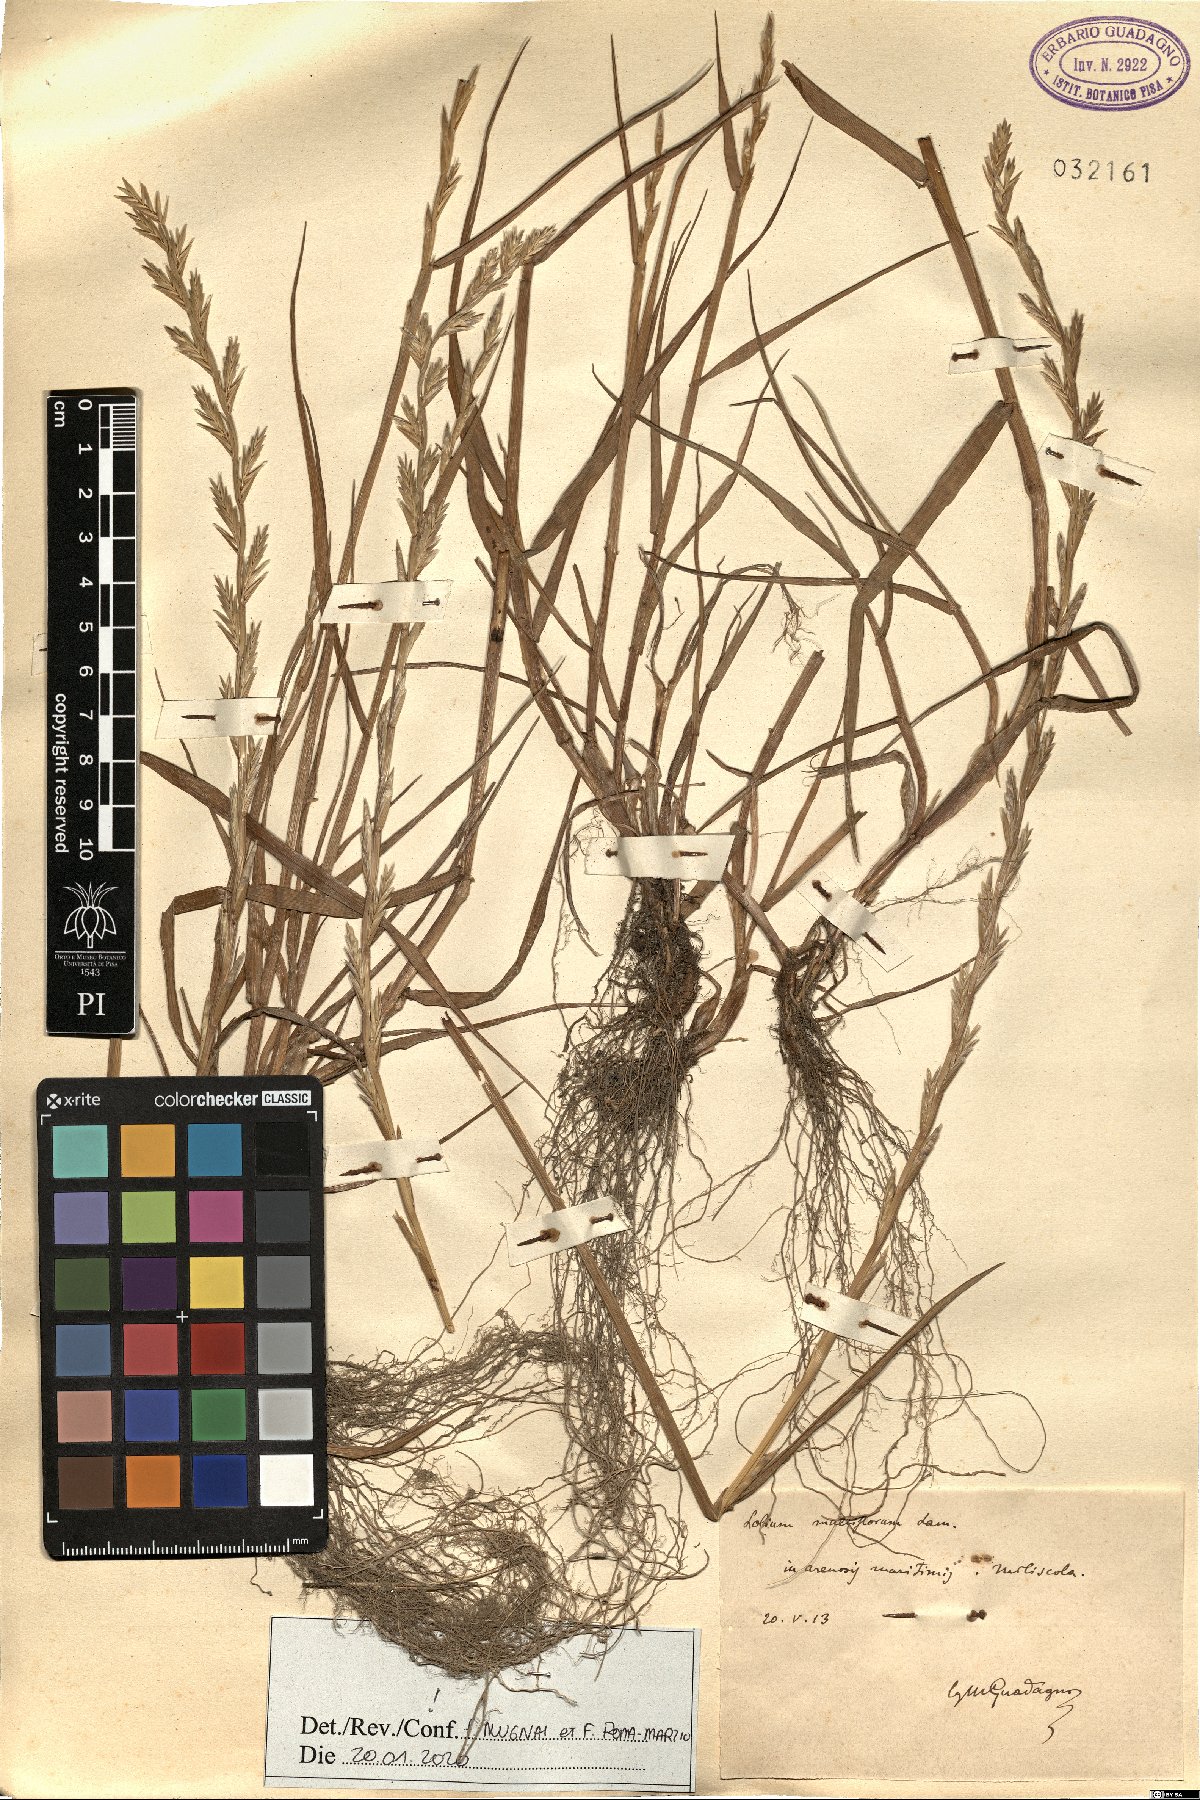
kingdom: Plantae
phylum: Tracheophyta
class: Liliopsida
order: Poales
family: Poaceae
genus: Lolium
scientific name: Lolium multiflorum
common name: Annual ryegrass
